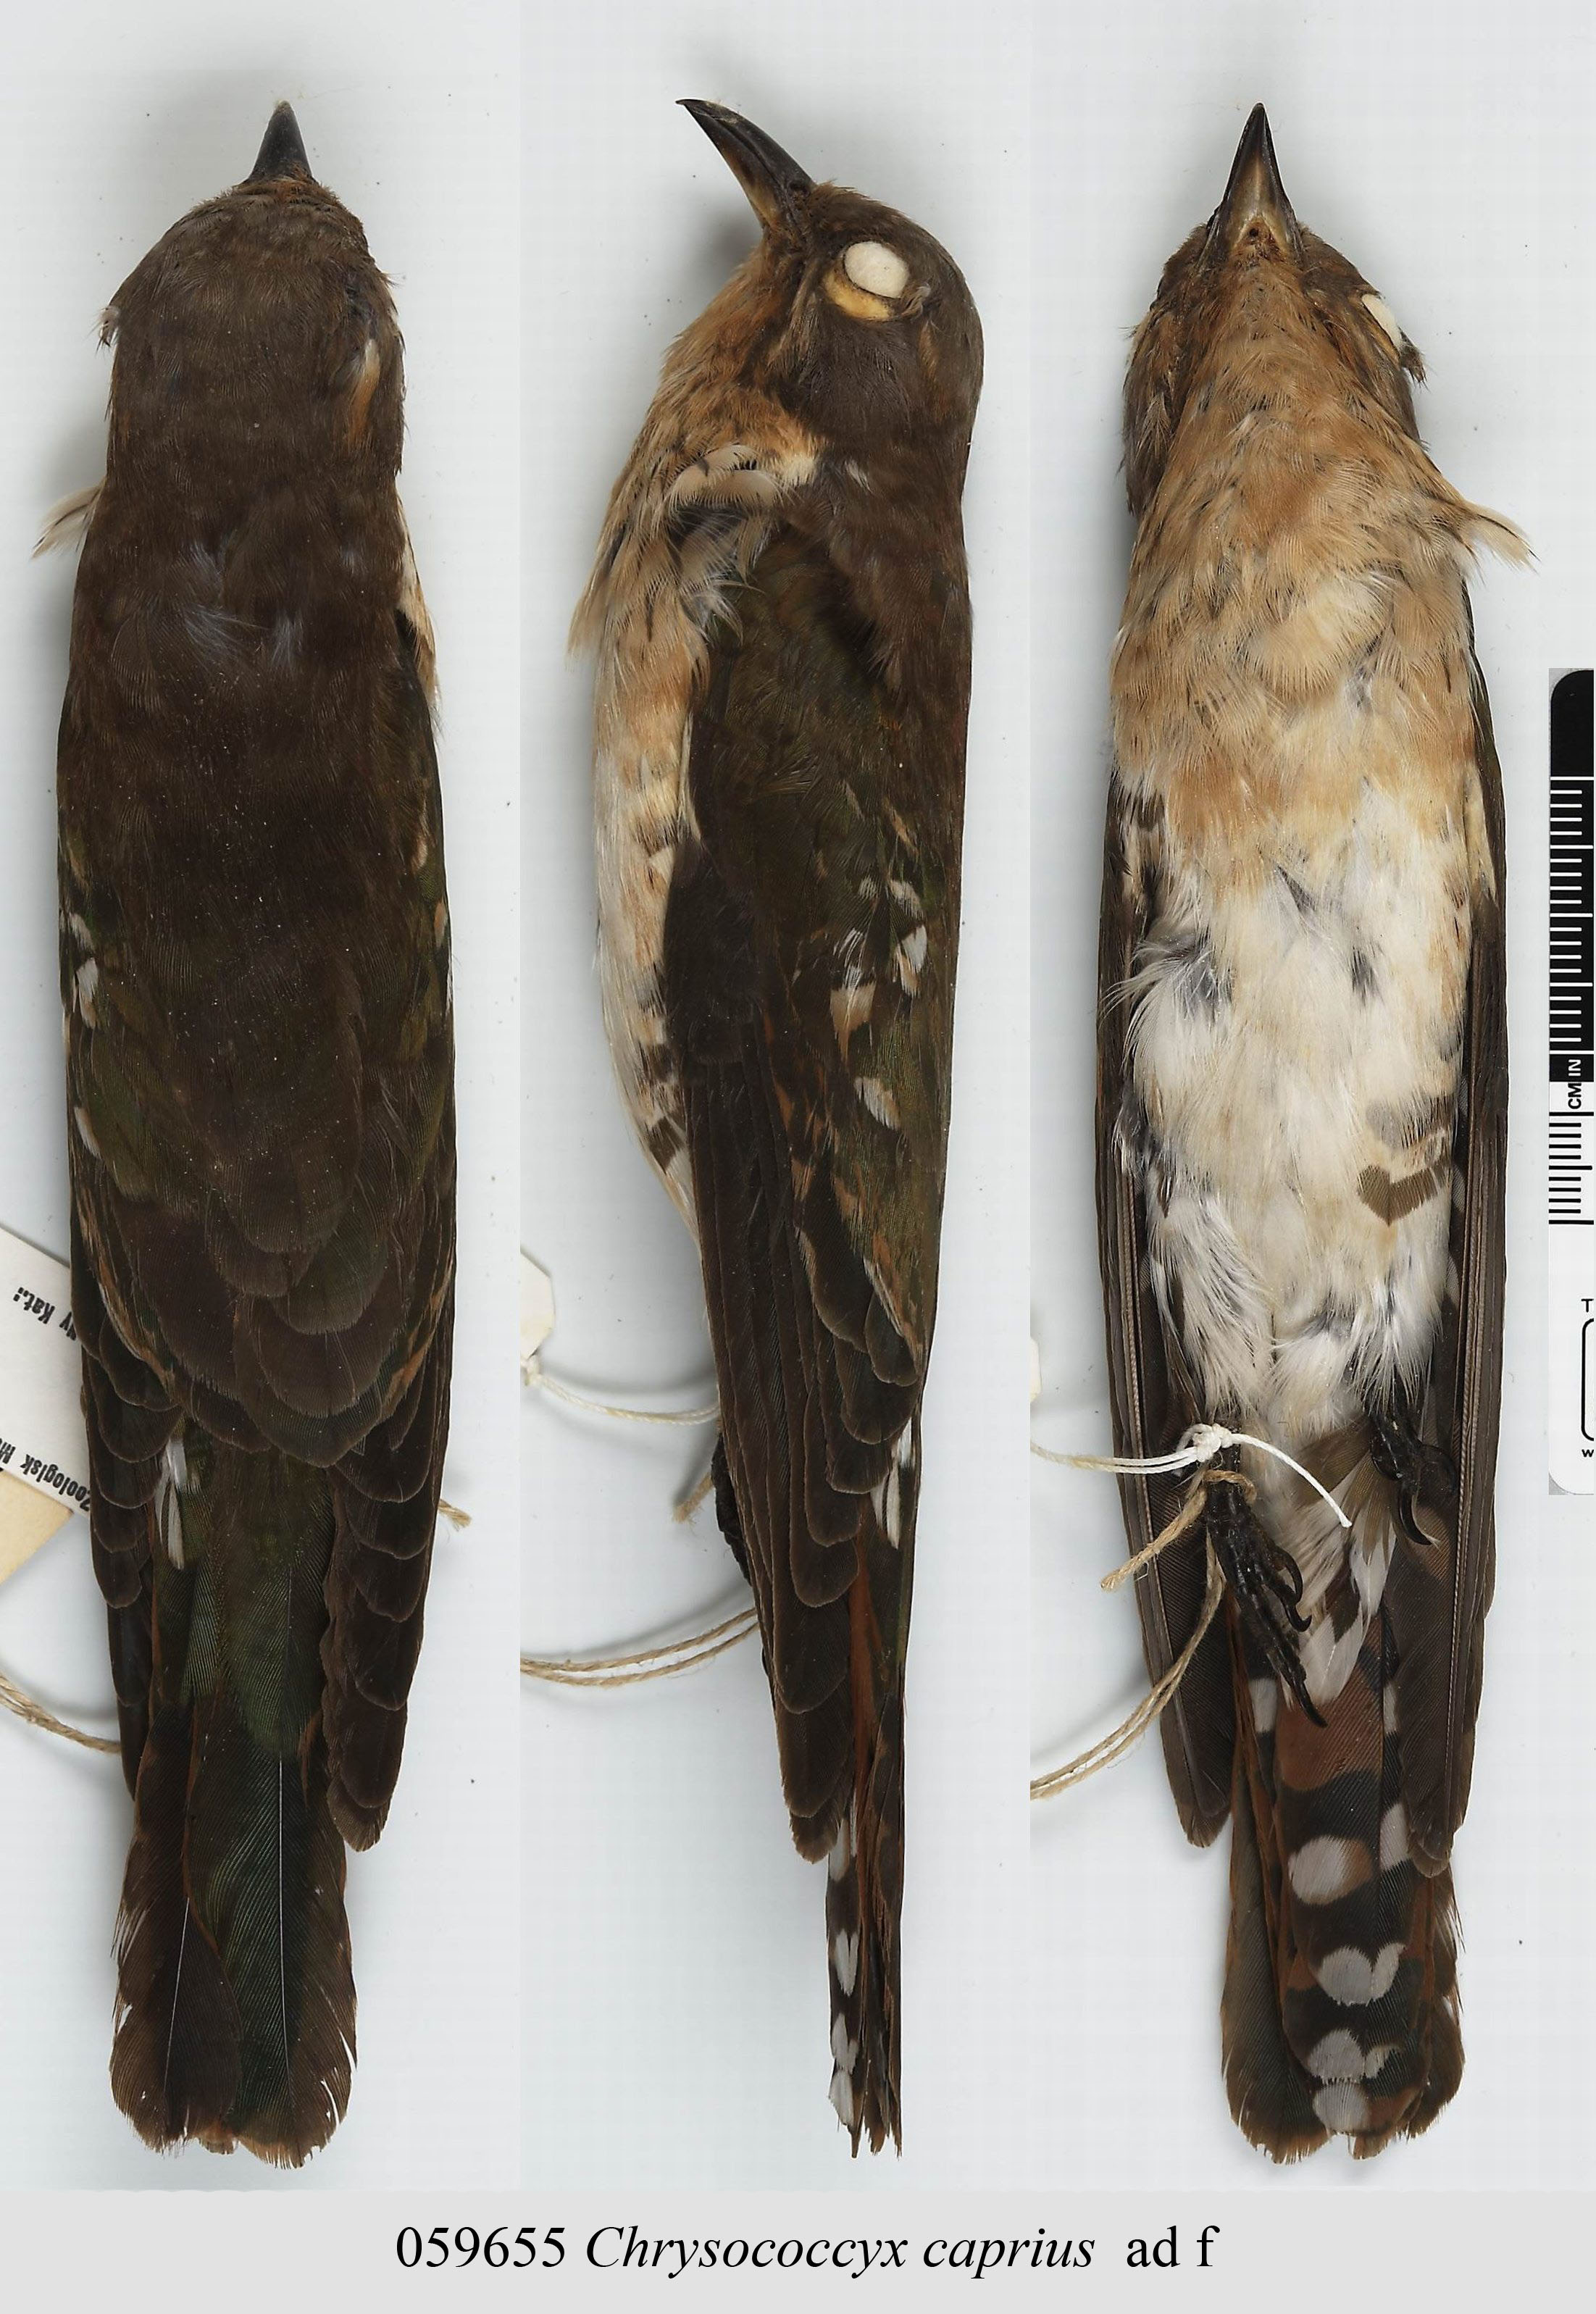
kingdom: Animalia
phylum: Chordata
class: Aves
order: Cuculiformes
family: Cuculidae
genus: Chrysococcyx
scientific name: Chrysococcyx caprius
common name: Diederik cuckoo
